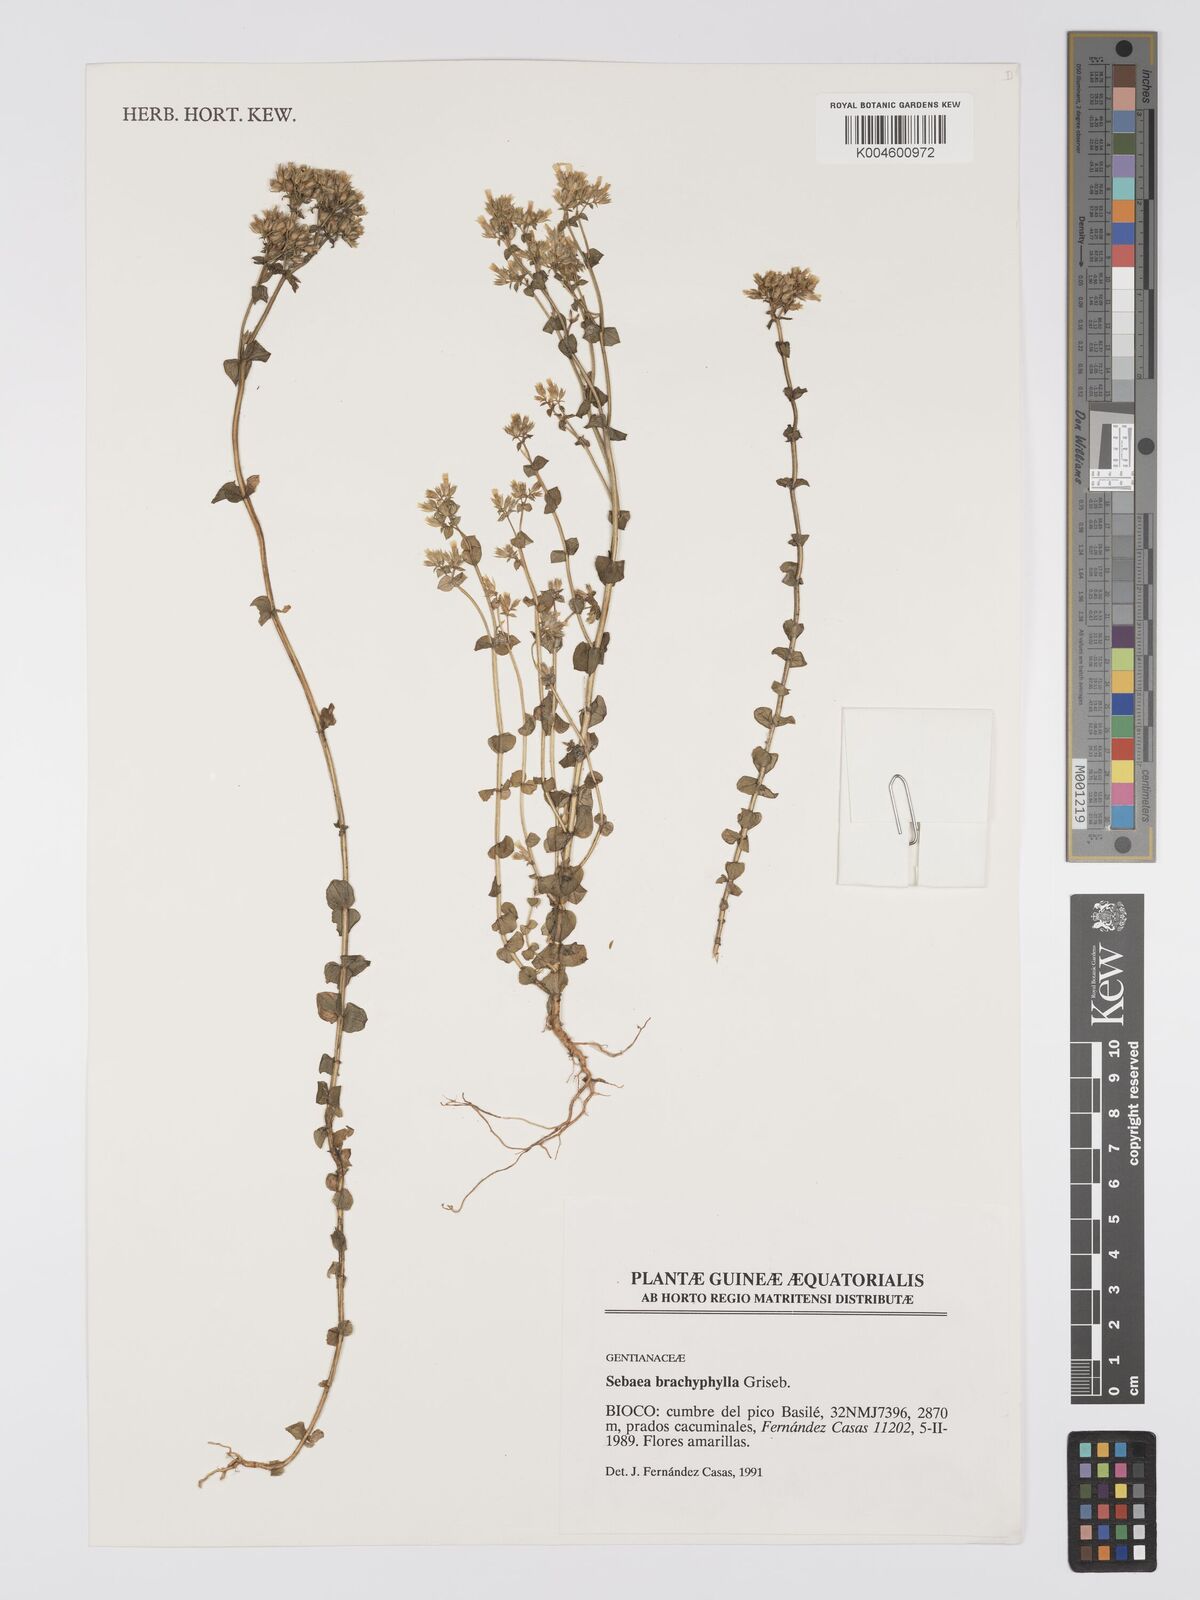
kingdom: Plantae
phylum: Tracheophyta
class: Magnoliopsida
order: Gentianales
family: Gentianaceae
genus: Sebaea
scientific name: Sebaea brachyphylla
